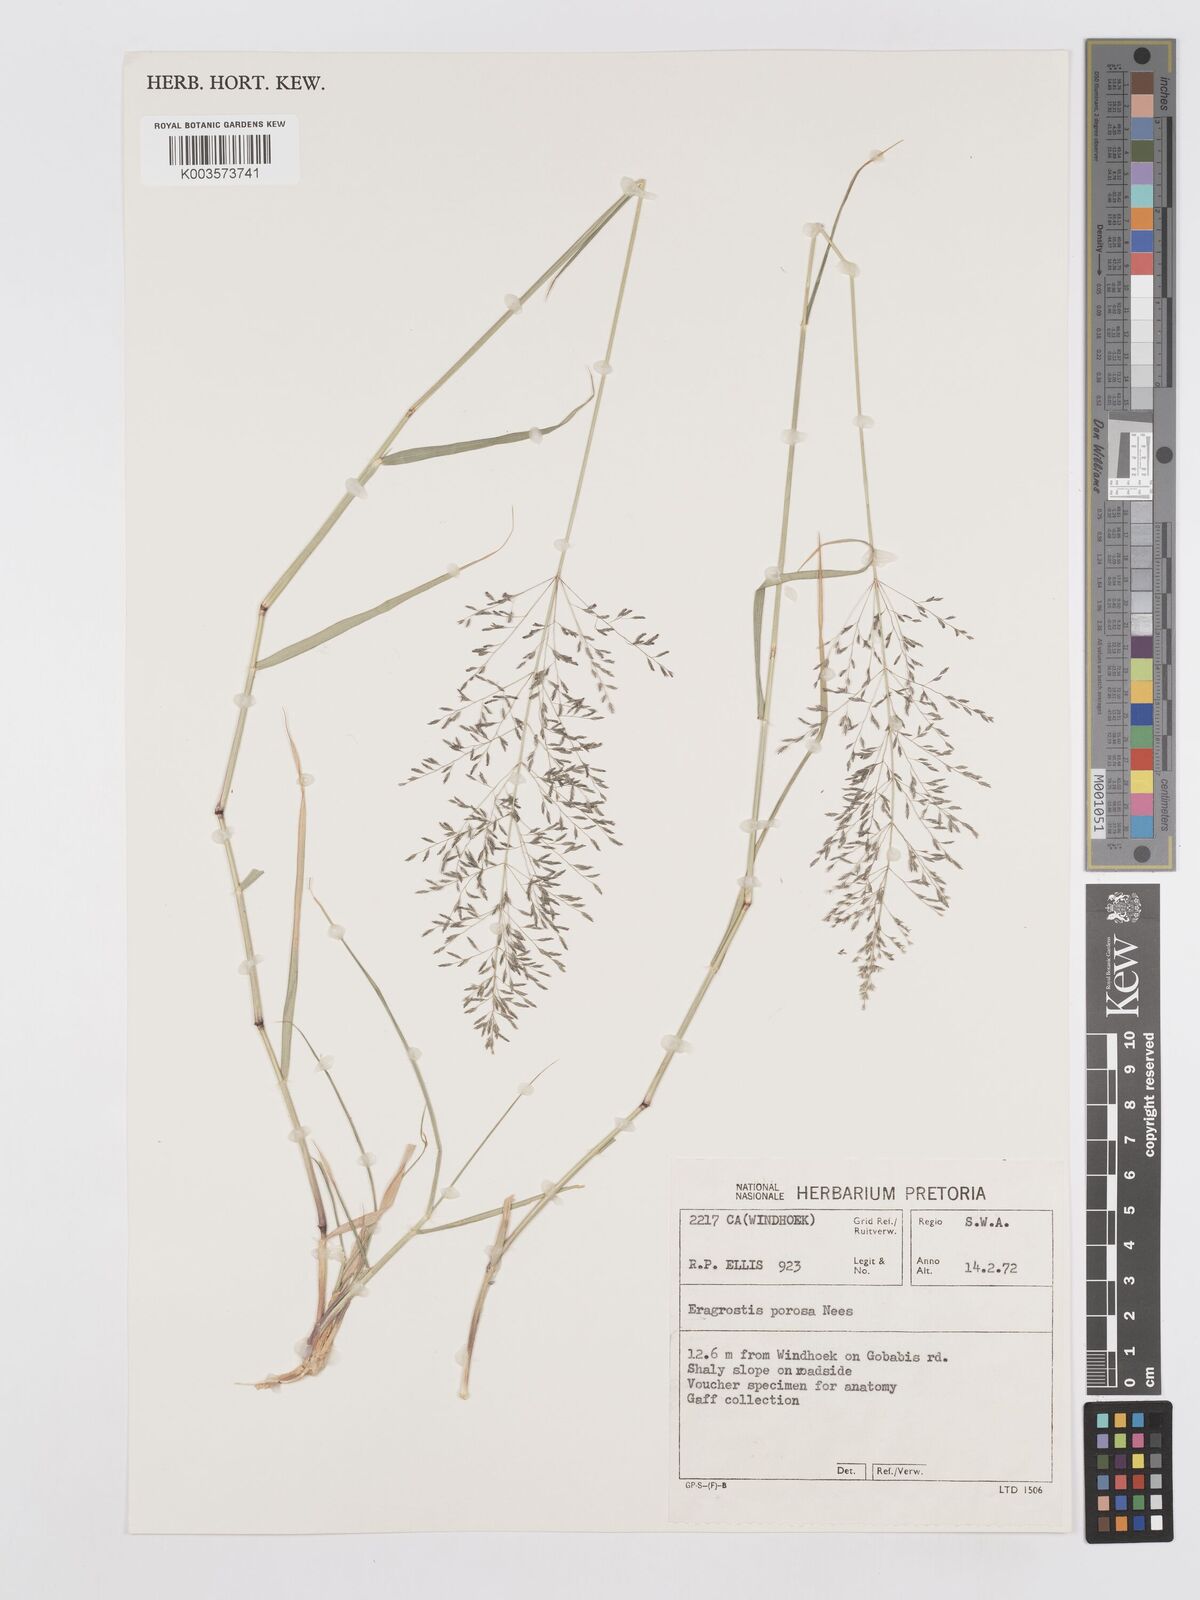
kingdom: Plantae
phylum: Tracheophyta
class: Liliopsida
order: Poales
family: Poaceae
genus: Eragrostis
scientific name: Eragrostis porosa
